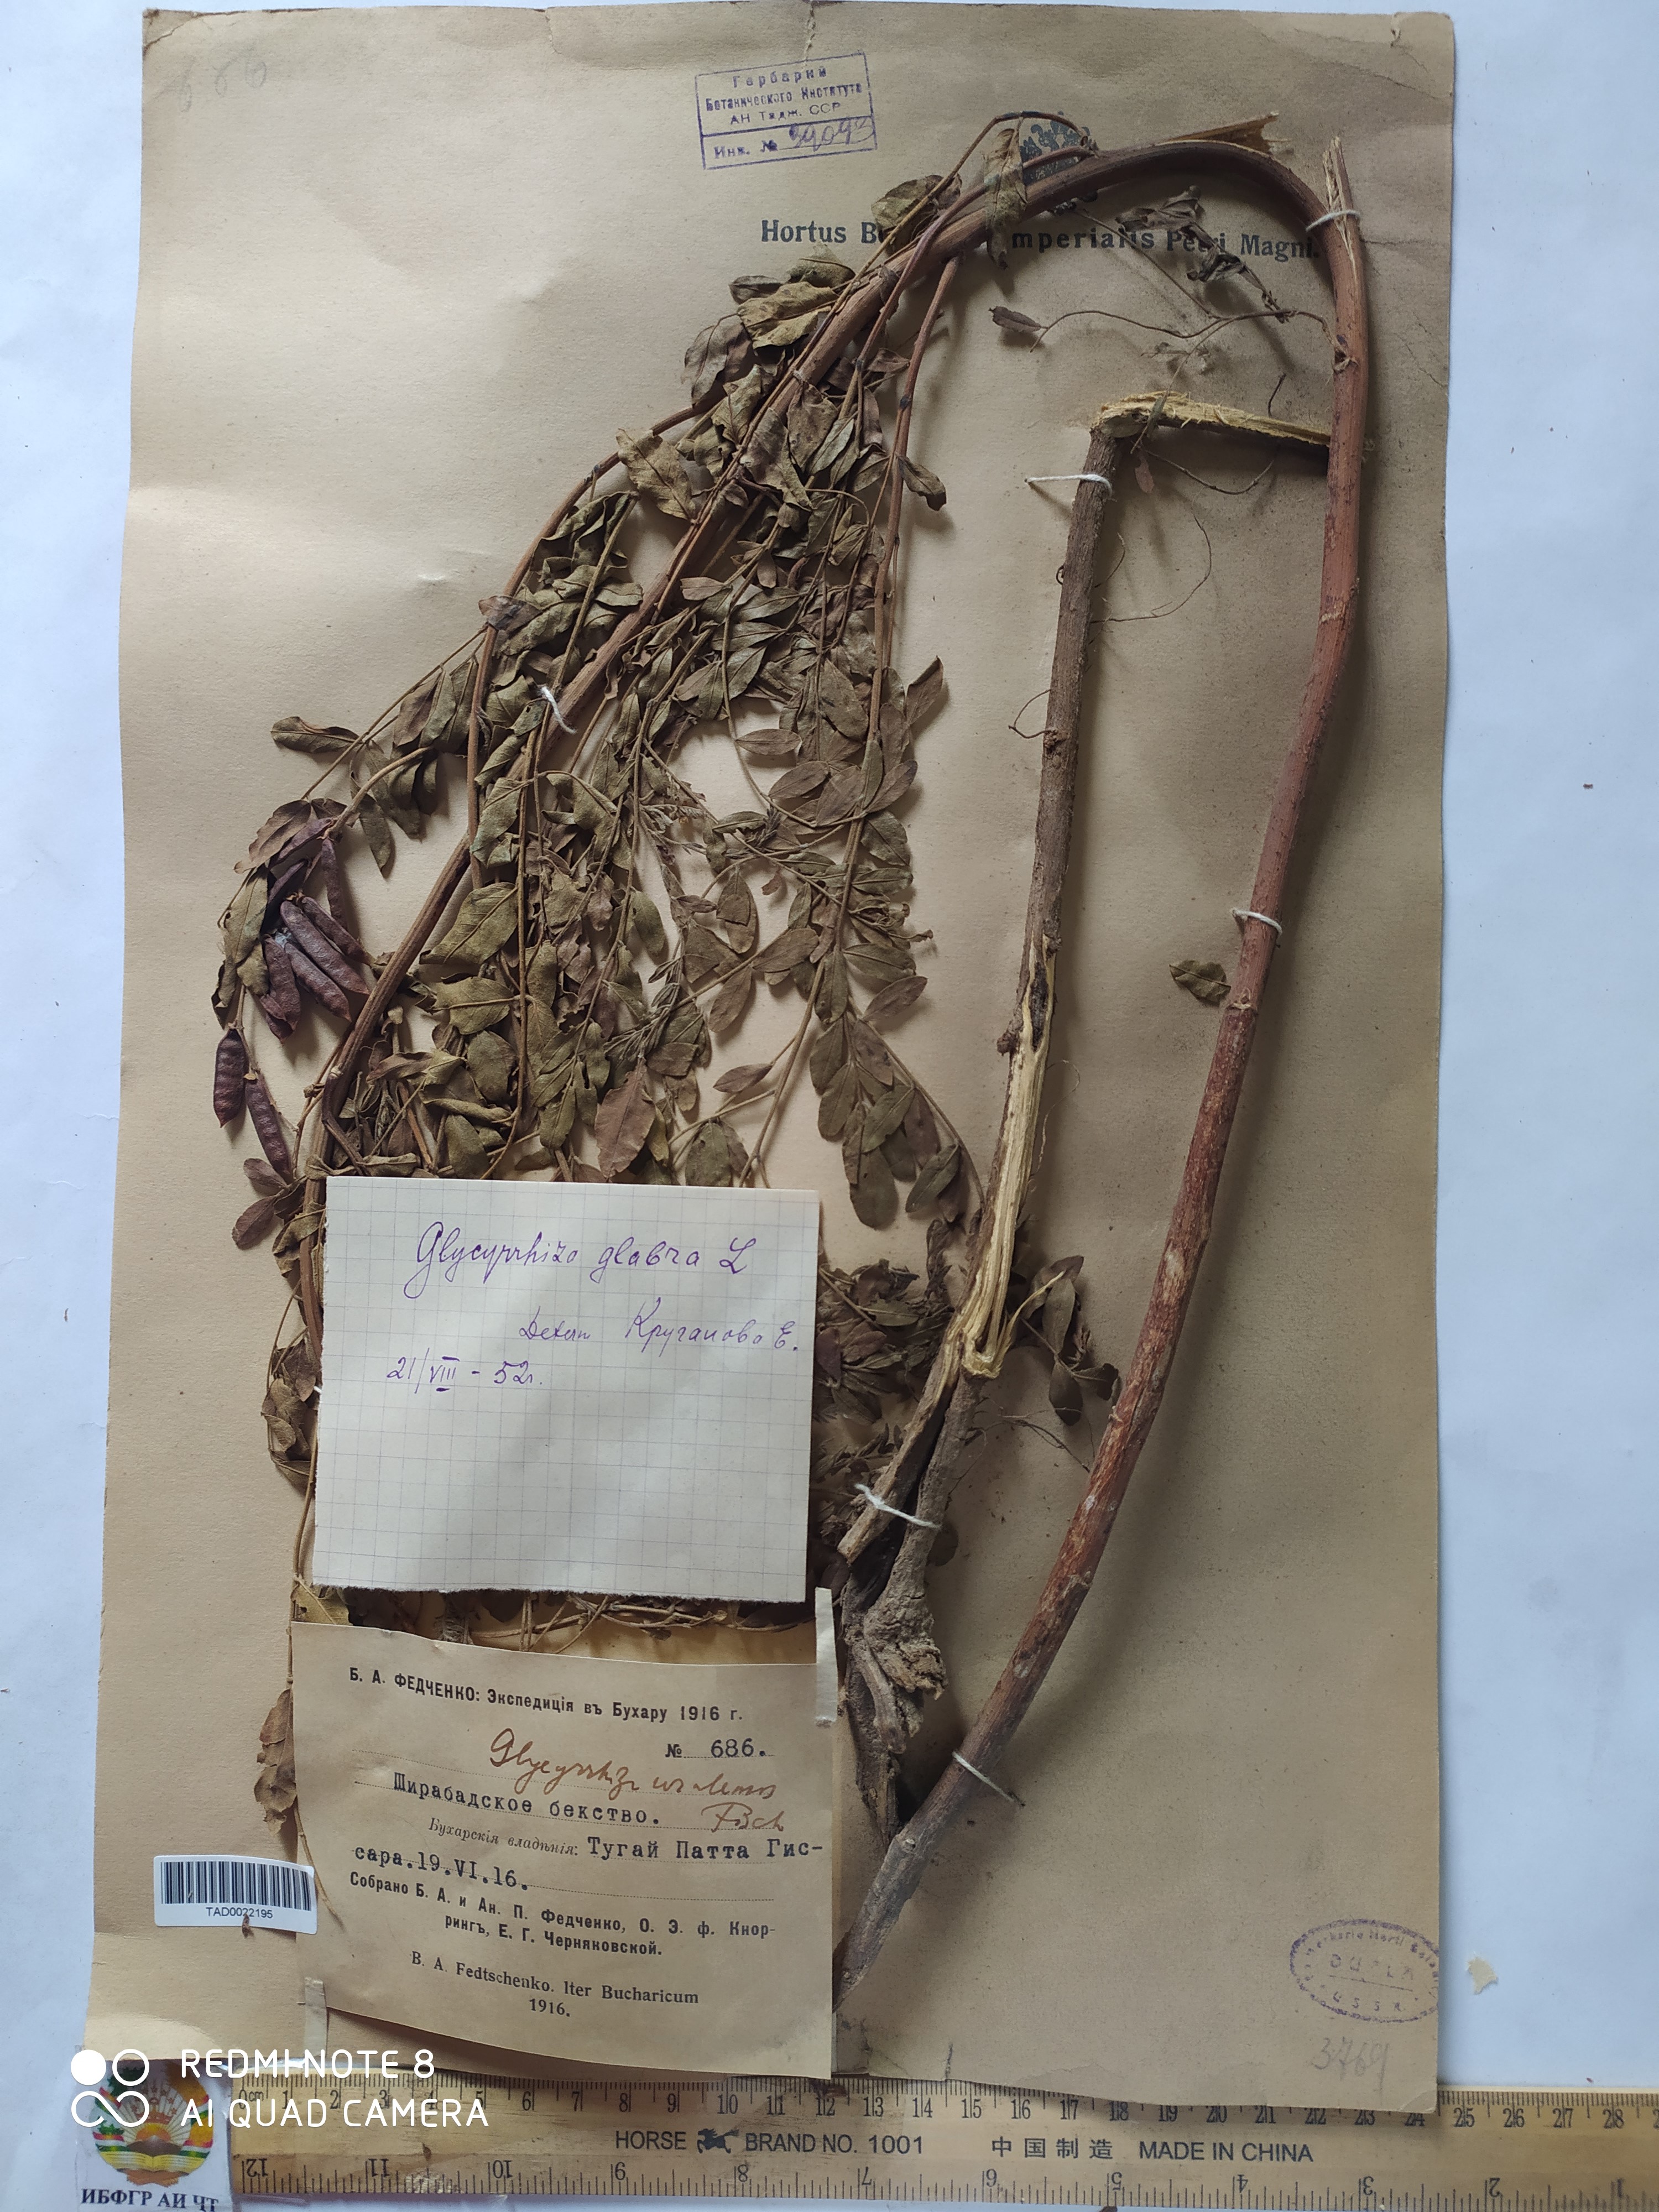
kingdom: Plantae
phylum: Tracheophyta
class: Magnoliopsida
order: Fabales
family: Fabaceae
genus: Glycyrrhiza
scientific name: Glycyrrhiza glabra
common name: Liquorice
